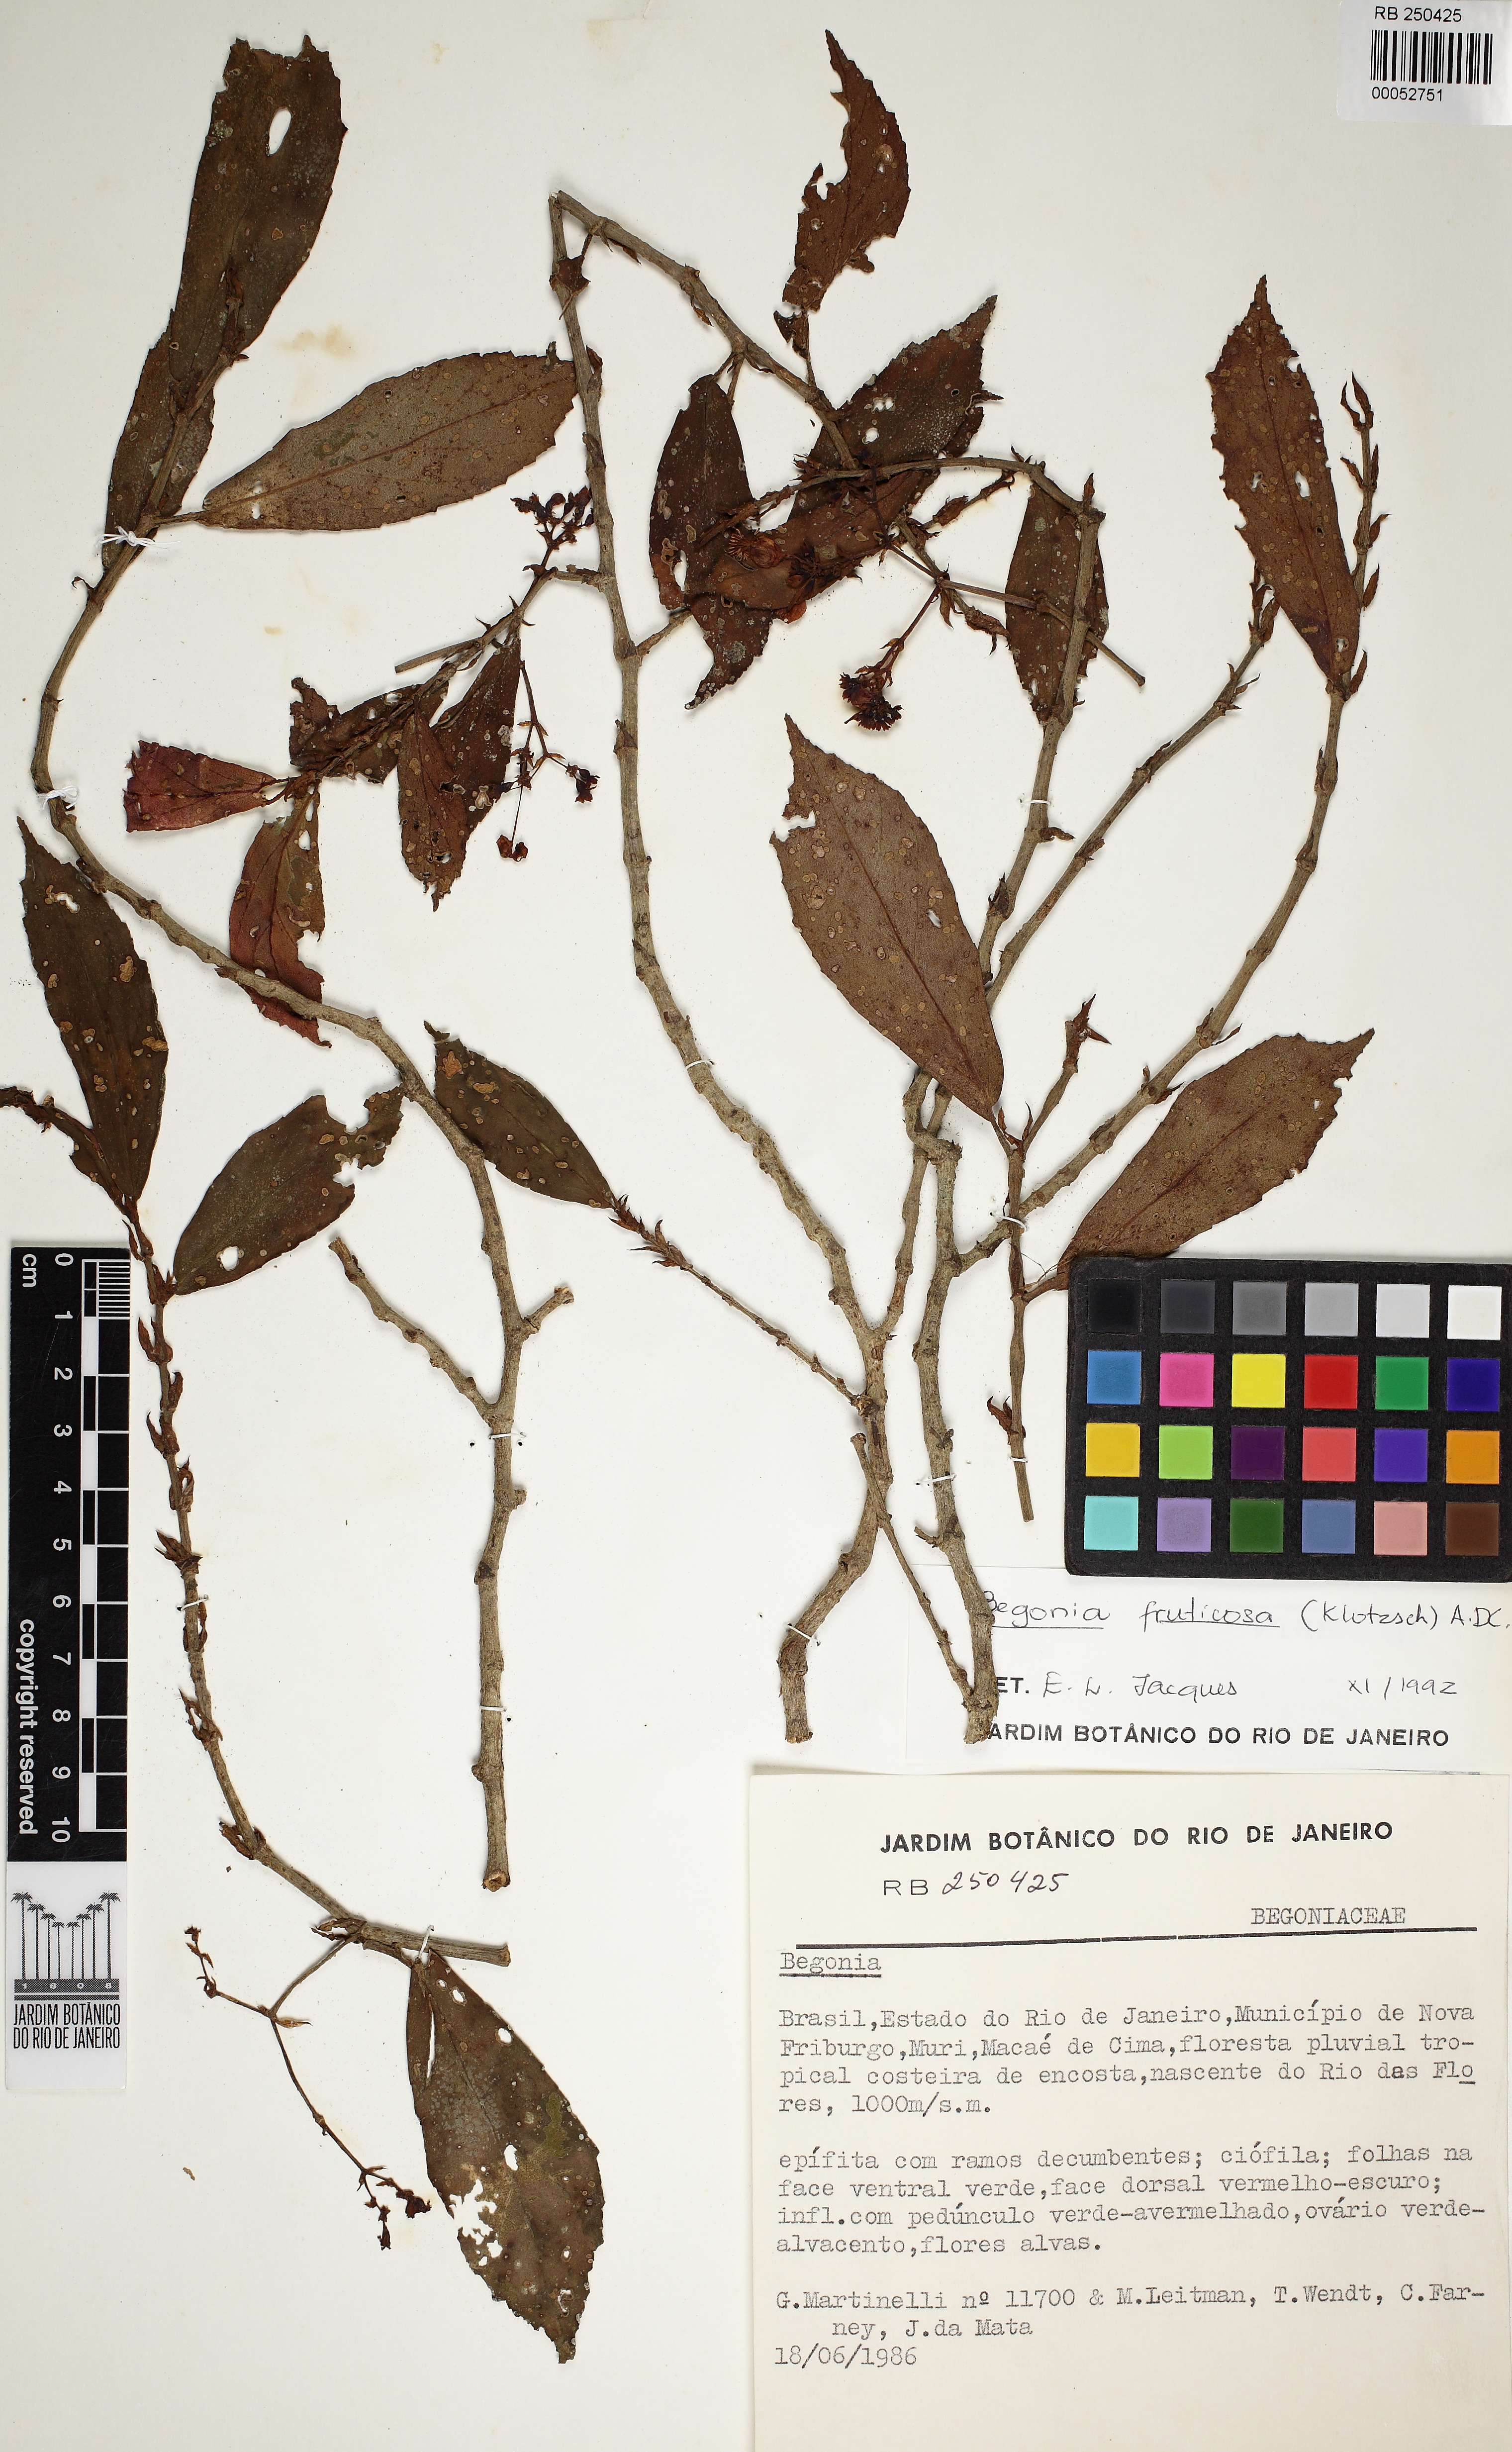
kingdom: Plantae
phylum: Tracheophyta
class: Magnoliopsida
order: Cucurbitales
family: Begoniaceae
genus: Begonia
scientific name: Begonia fruticosa
